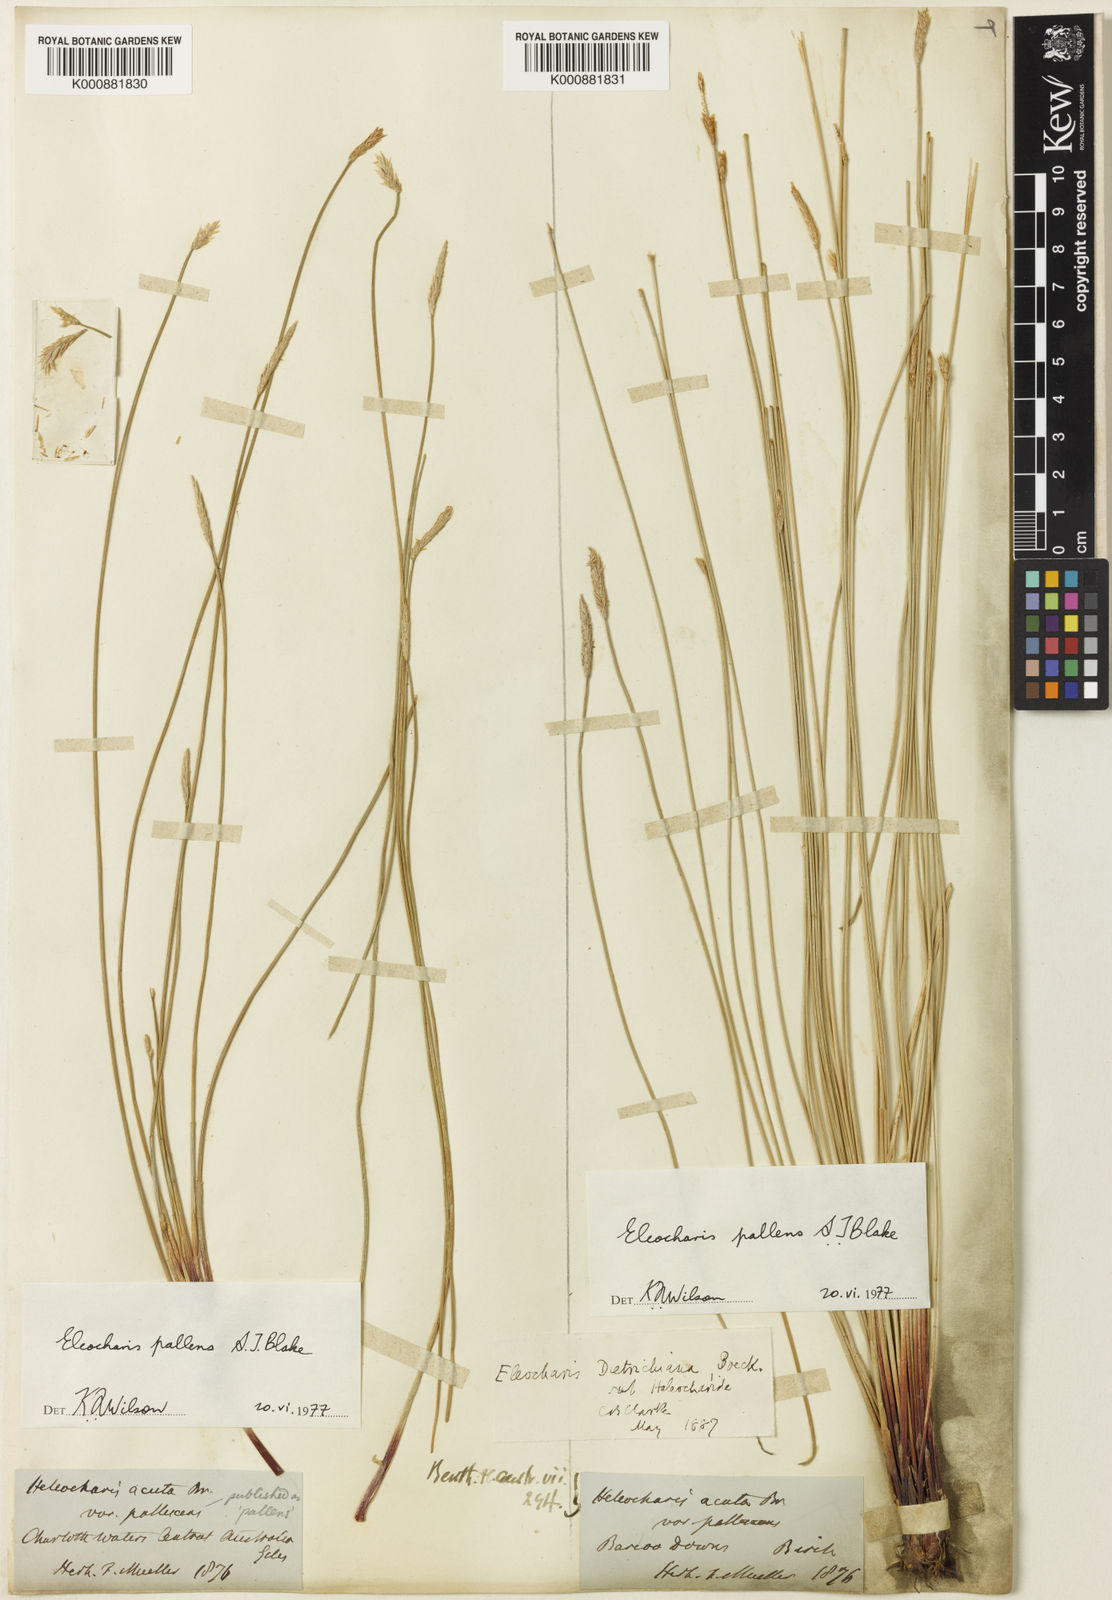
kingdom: Plantae
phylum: Tracheophyta
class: Liliopsida
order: Poales
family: Cyperaceae
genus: Eleocharis
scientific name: Eleocharis acuta
